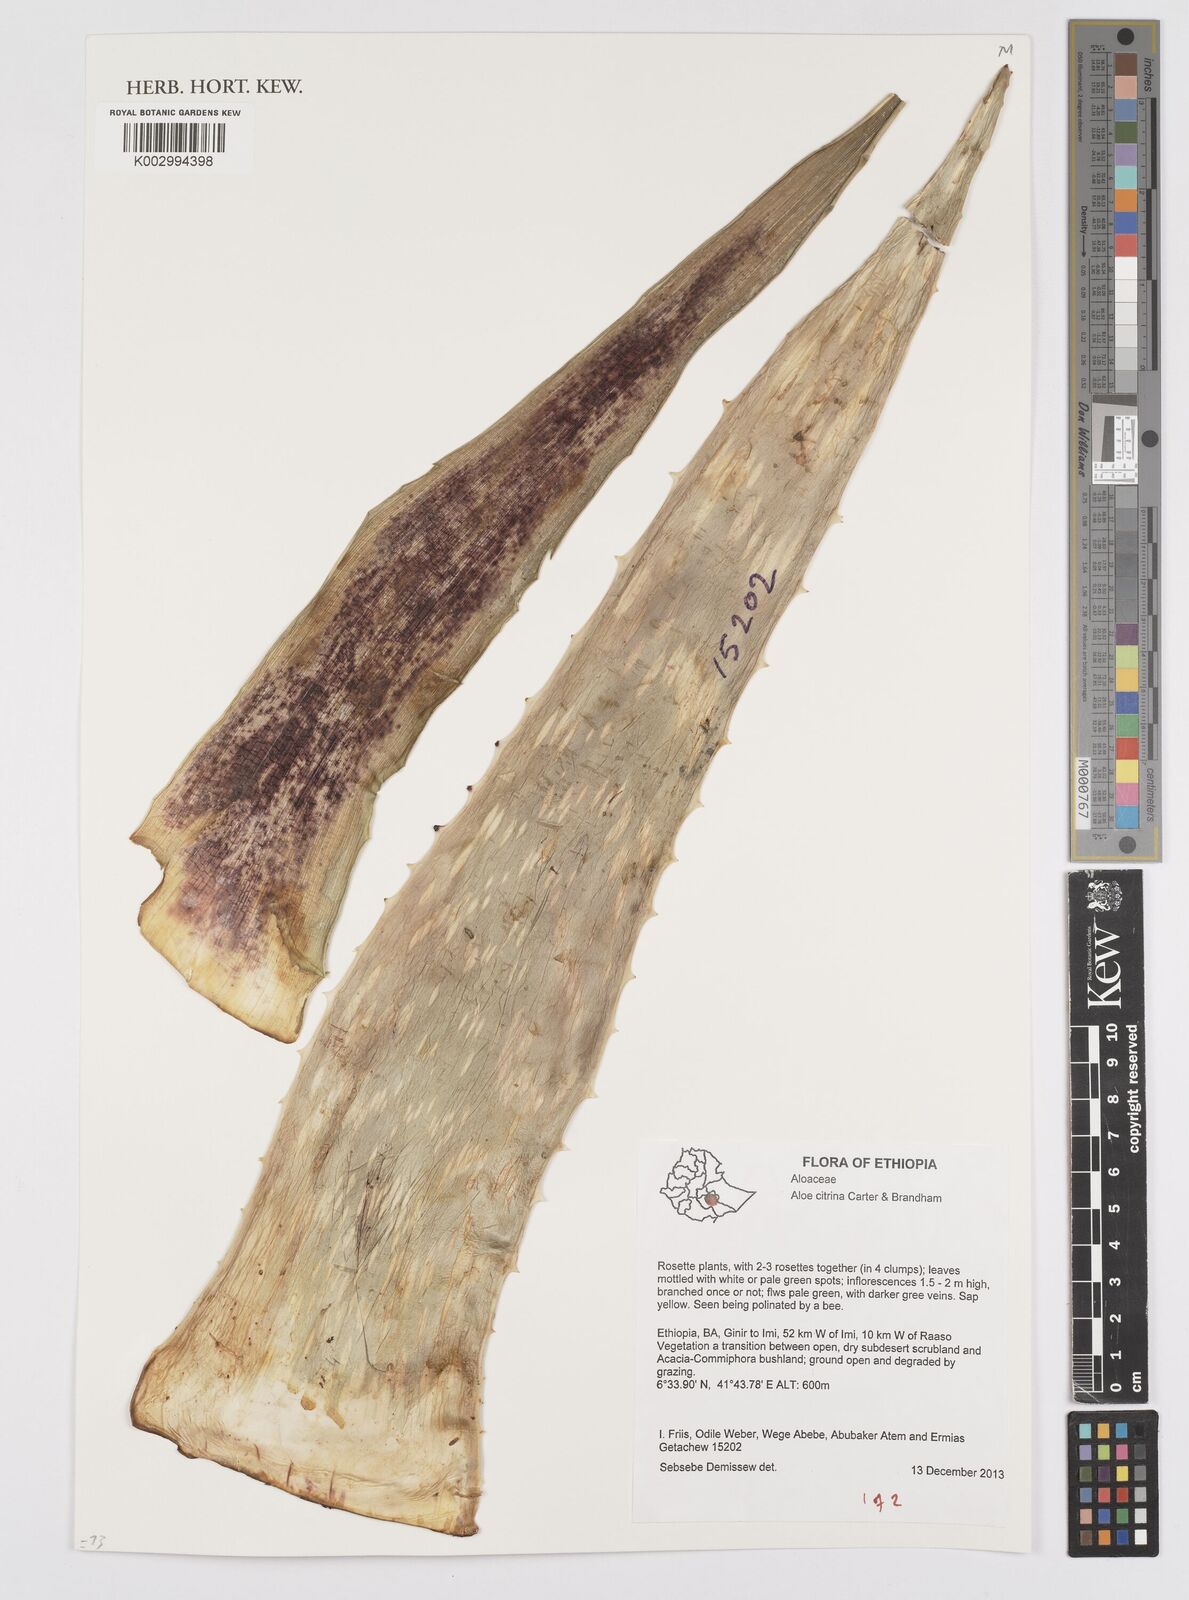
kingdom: Plantae
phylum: Tracheophyta
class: Liliopsida
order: Asparagales
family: Asphodelaceae
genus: Aloe
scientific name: Aloe citrina
